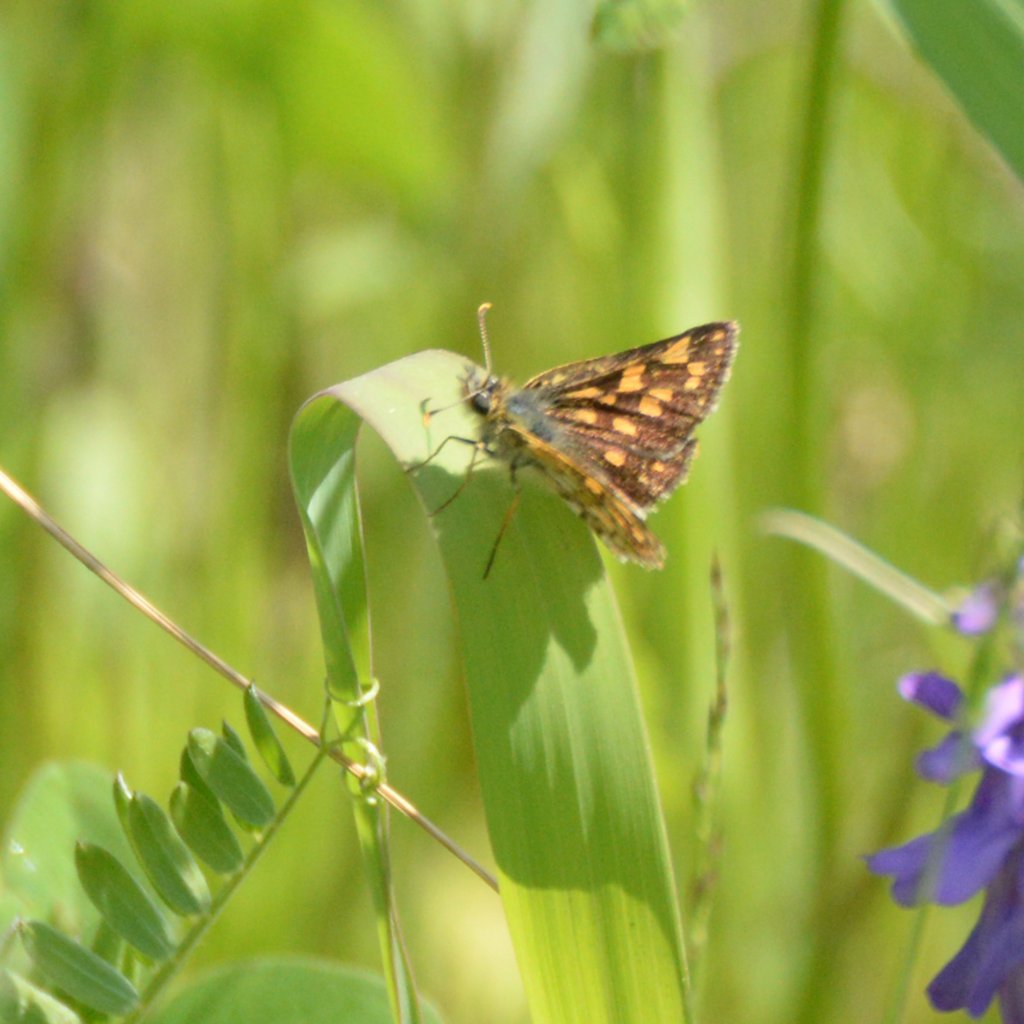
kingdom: Animalia
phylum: Arthropoda
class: Insecta
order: Lepidoptera
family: Hesperiidae
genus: Carterocephalus
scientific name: Carterocephalus palaemon
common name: Chequered Skipper
